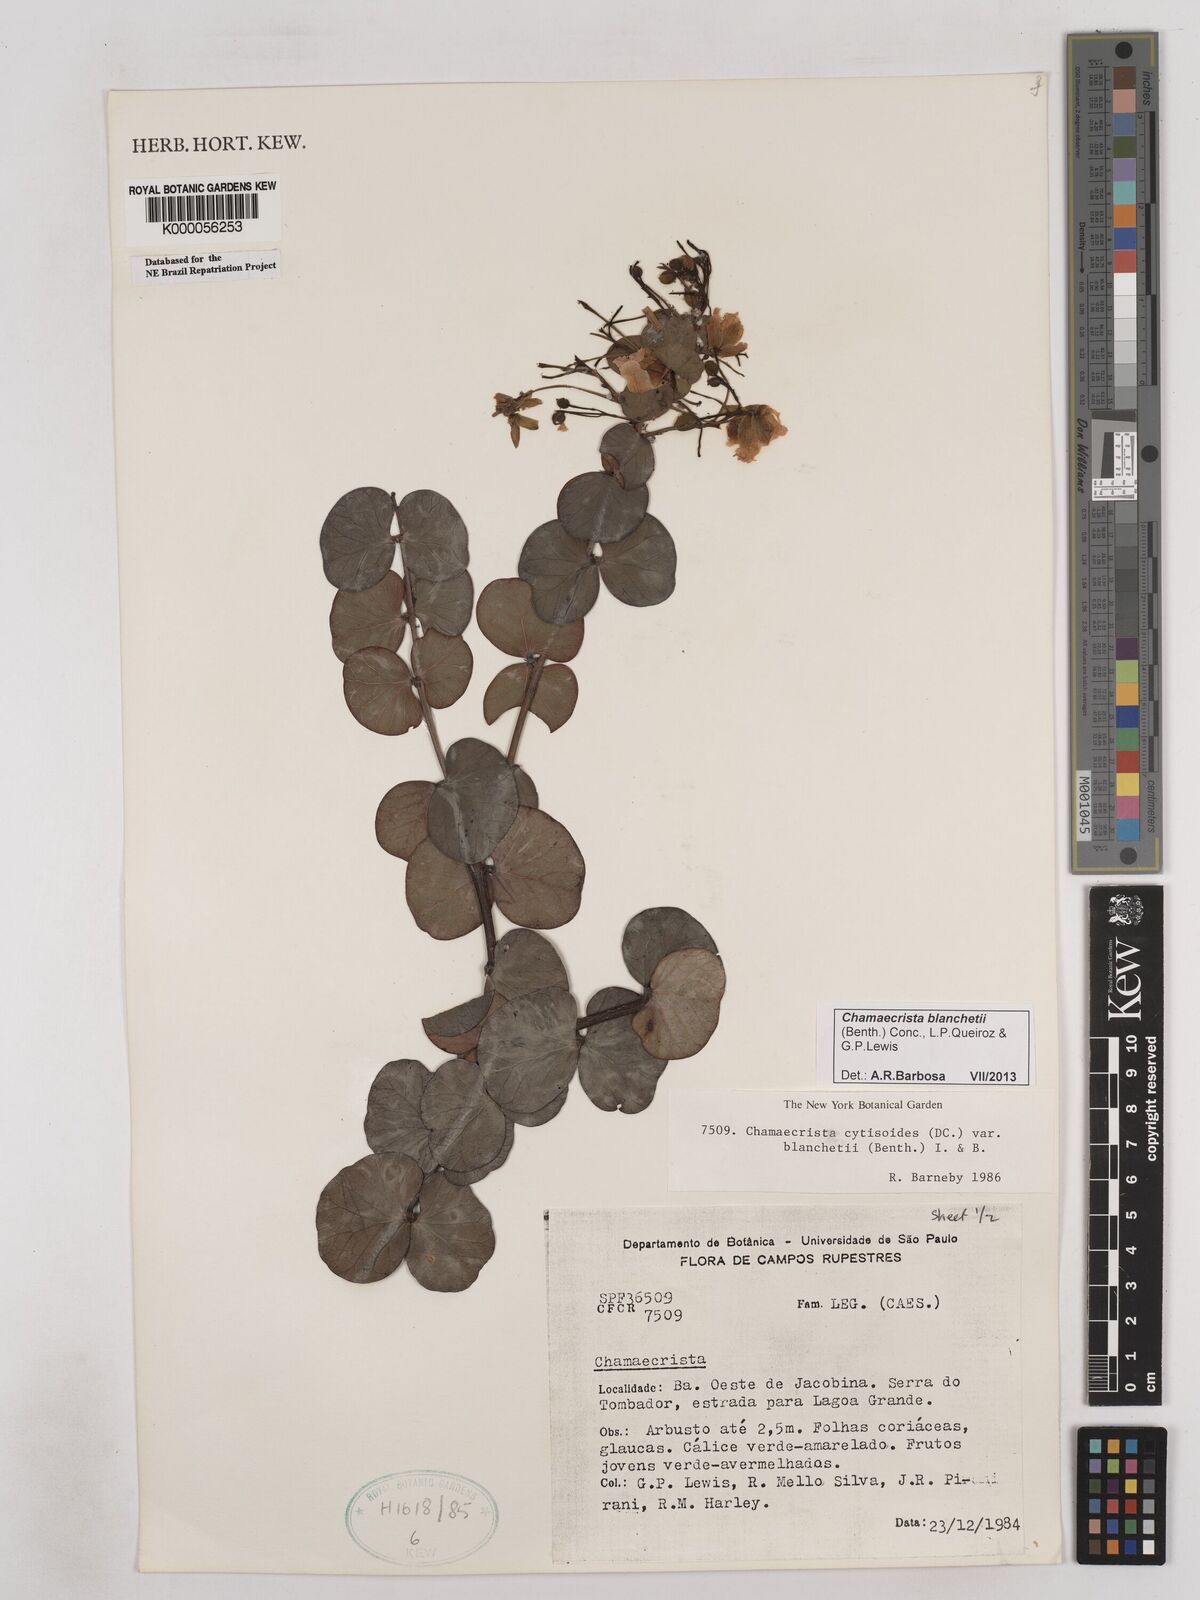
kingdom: Plantae
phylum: Tracheophyta
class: Magnoliopsida
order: Fabales
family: Fabaceae
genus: Chamaecrista
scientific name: Chamaecrista cytisoides
